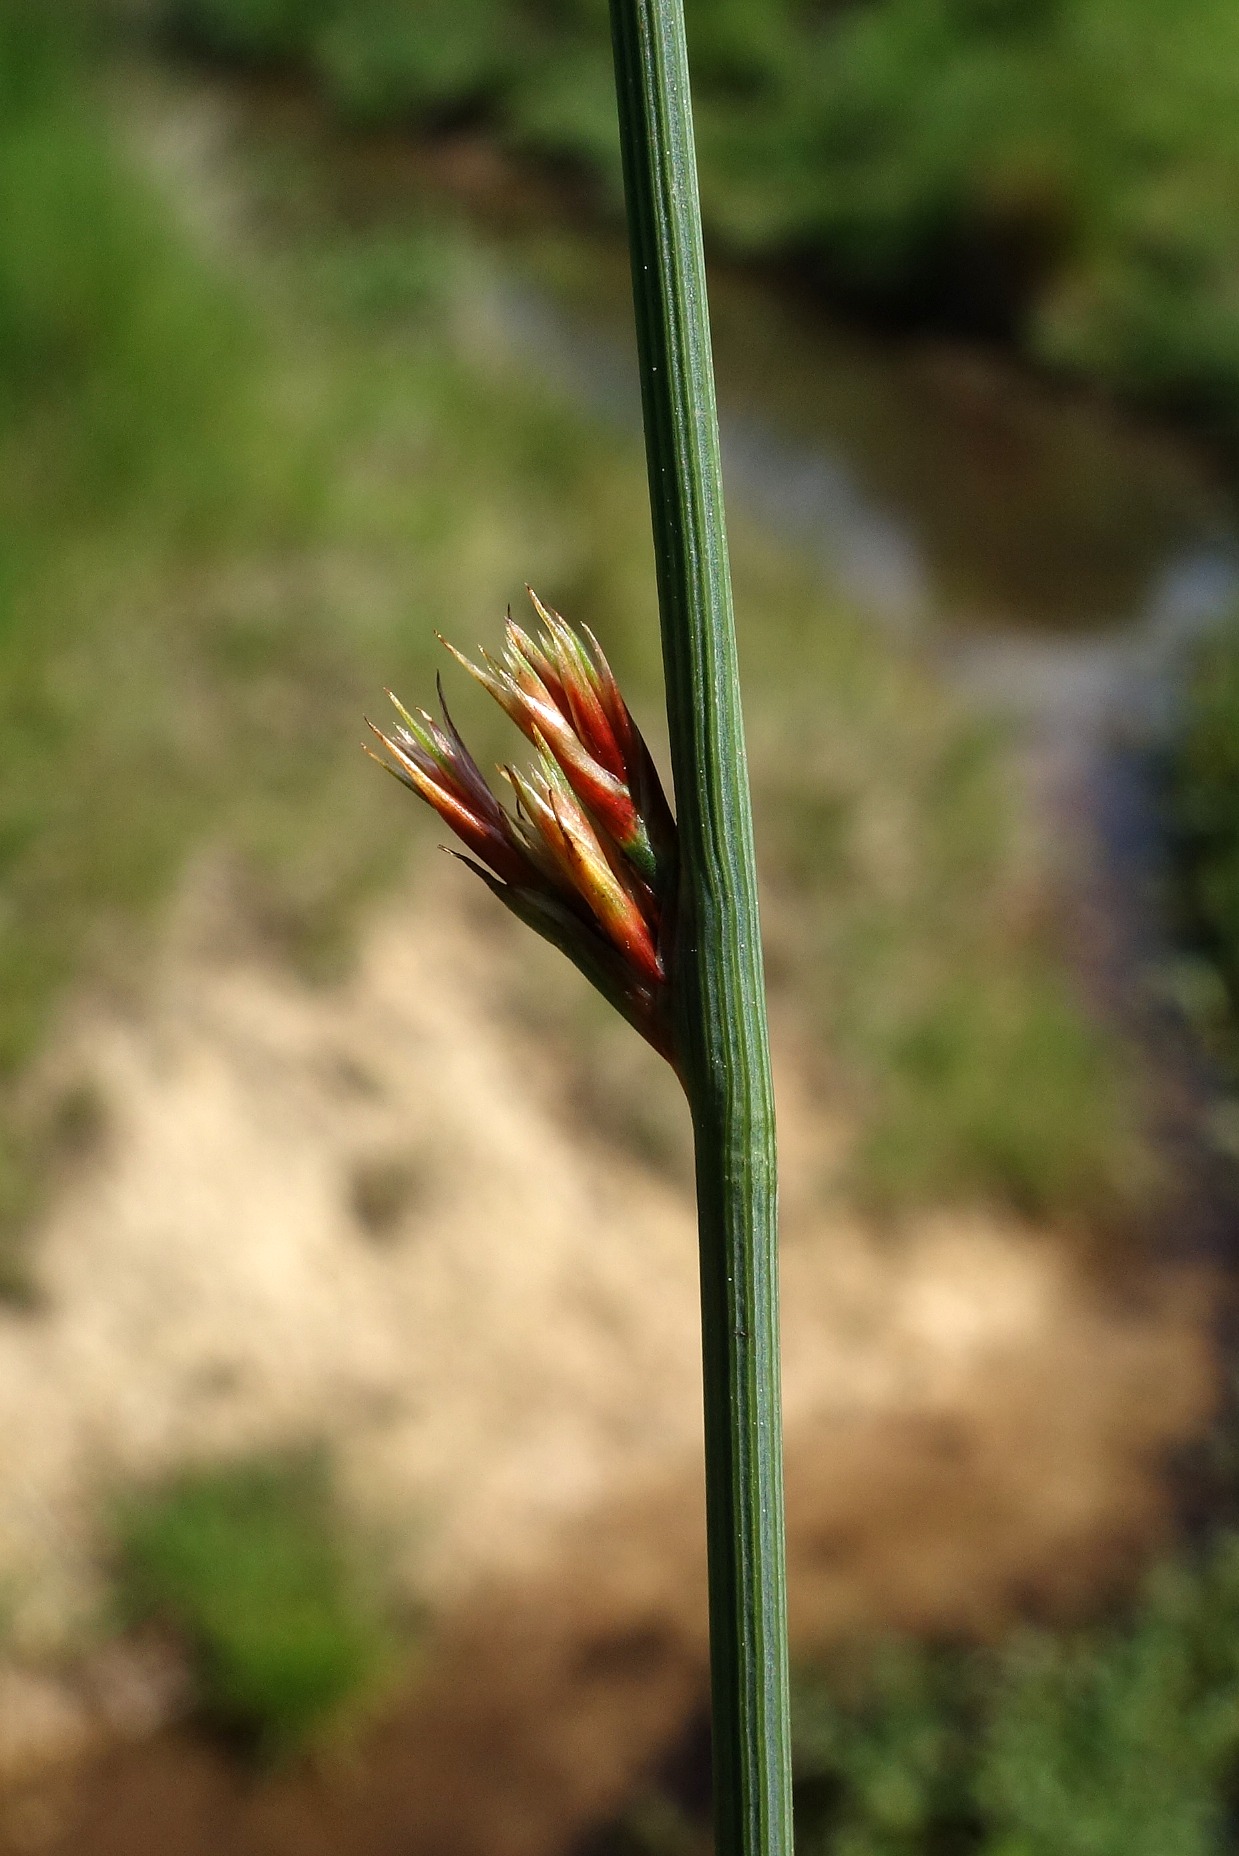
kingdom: Plantae
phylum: Tracheophyta
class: Liliopsida
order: Poales
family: Juncaceae
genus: Juncus
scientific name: Juncus inflexus
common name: Blågrå siv
